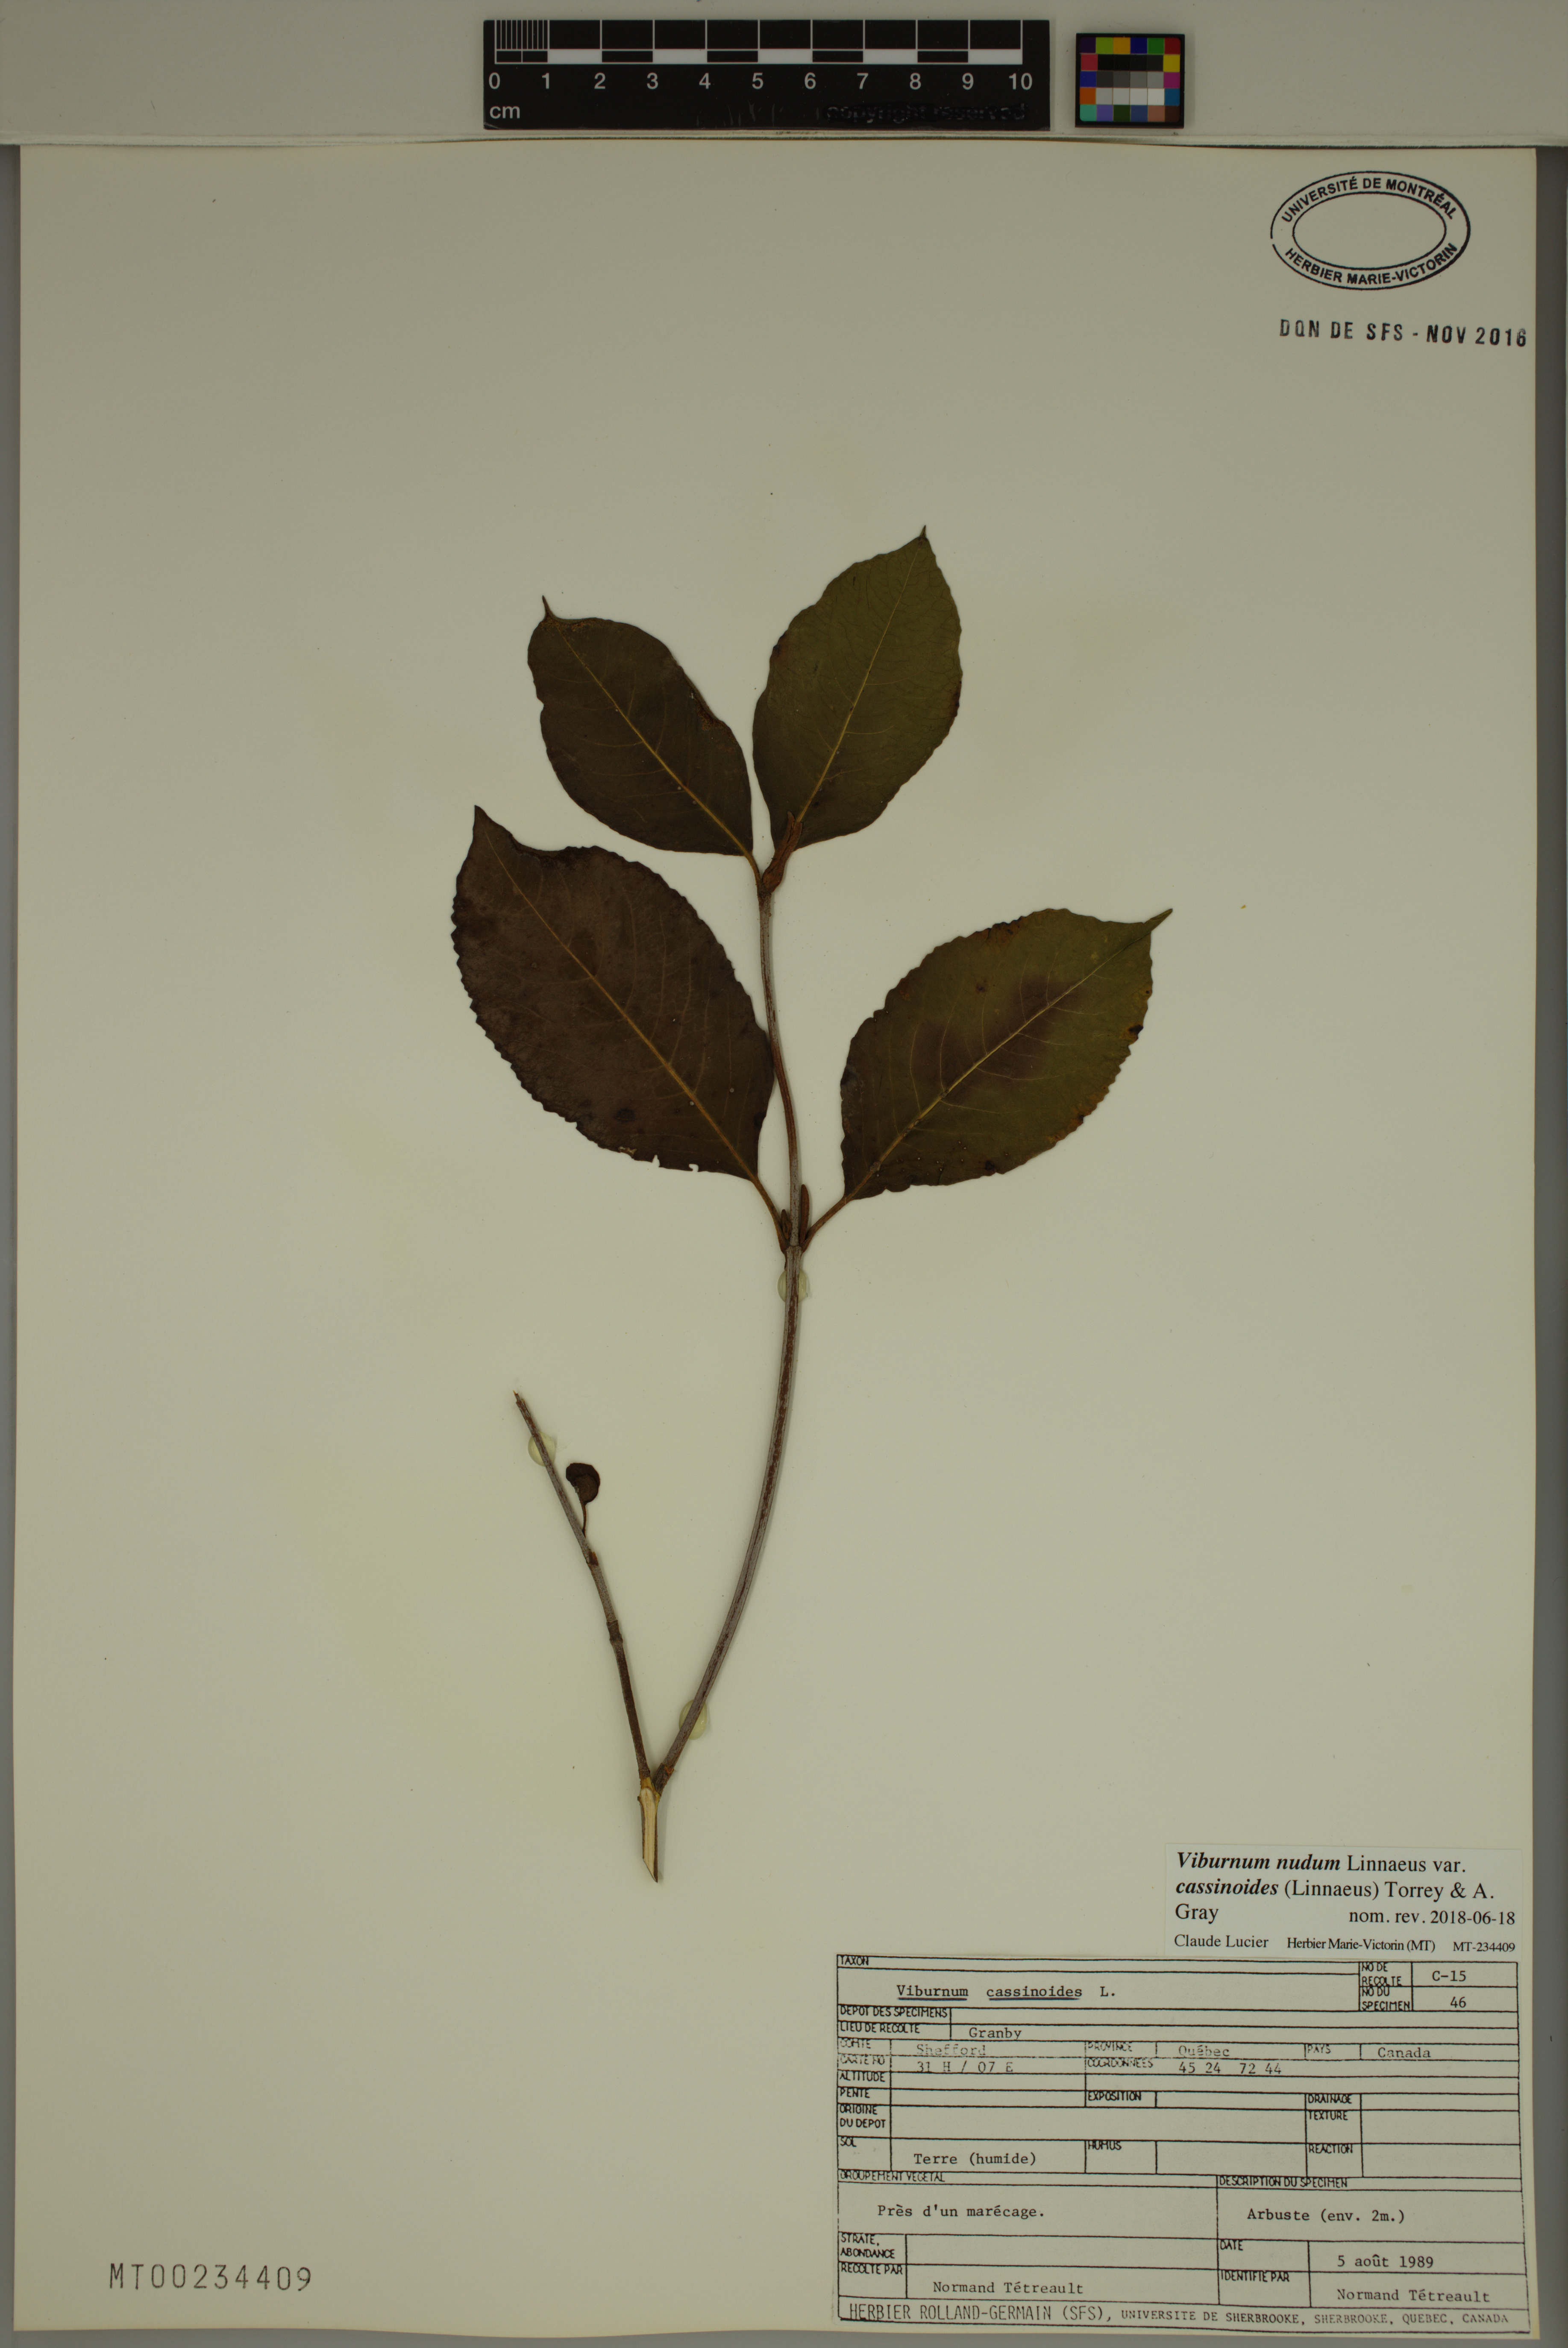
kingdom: Plantae
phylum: Tracheophyta
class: Magnoliopsida
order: Dipsacales
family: Viburnaceae
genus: Viburnum
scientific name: Viburnum cassinoides
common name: Swamp haw
